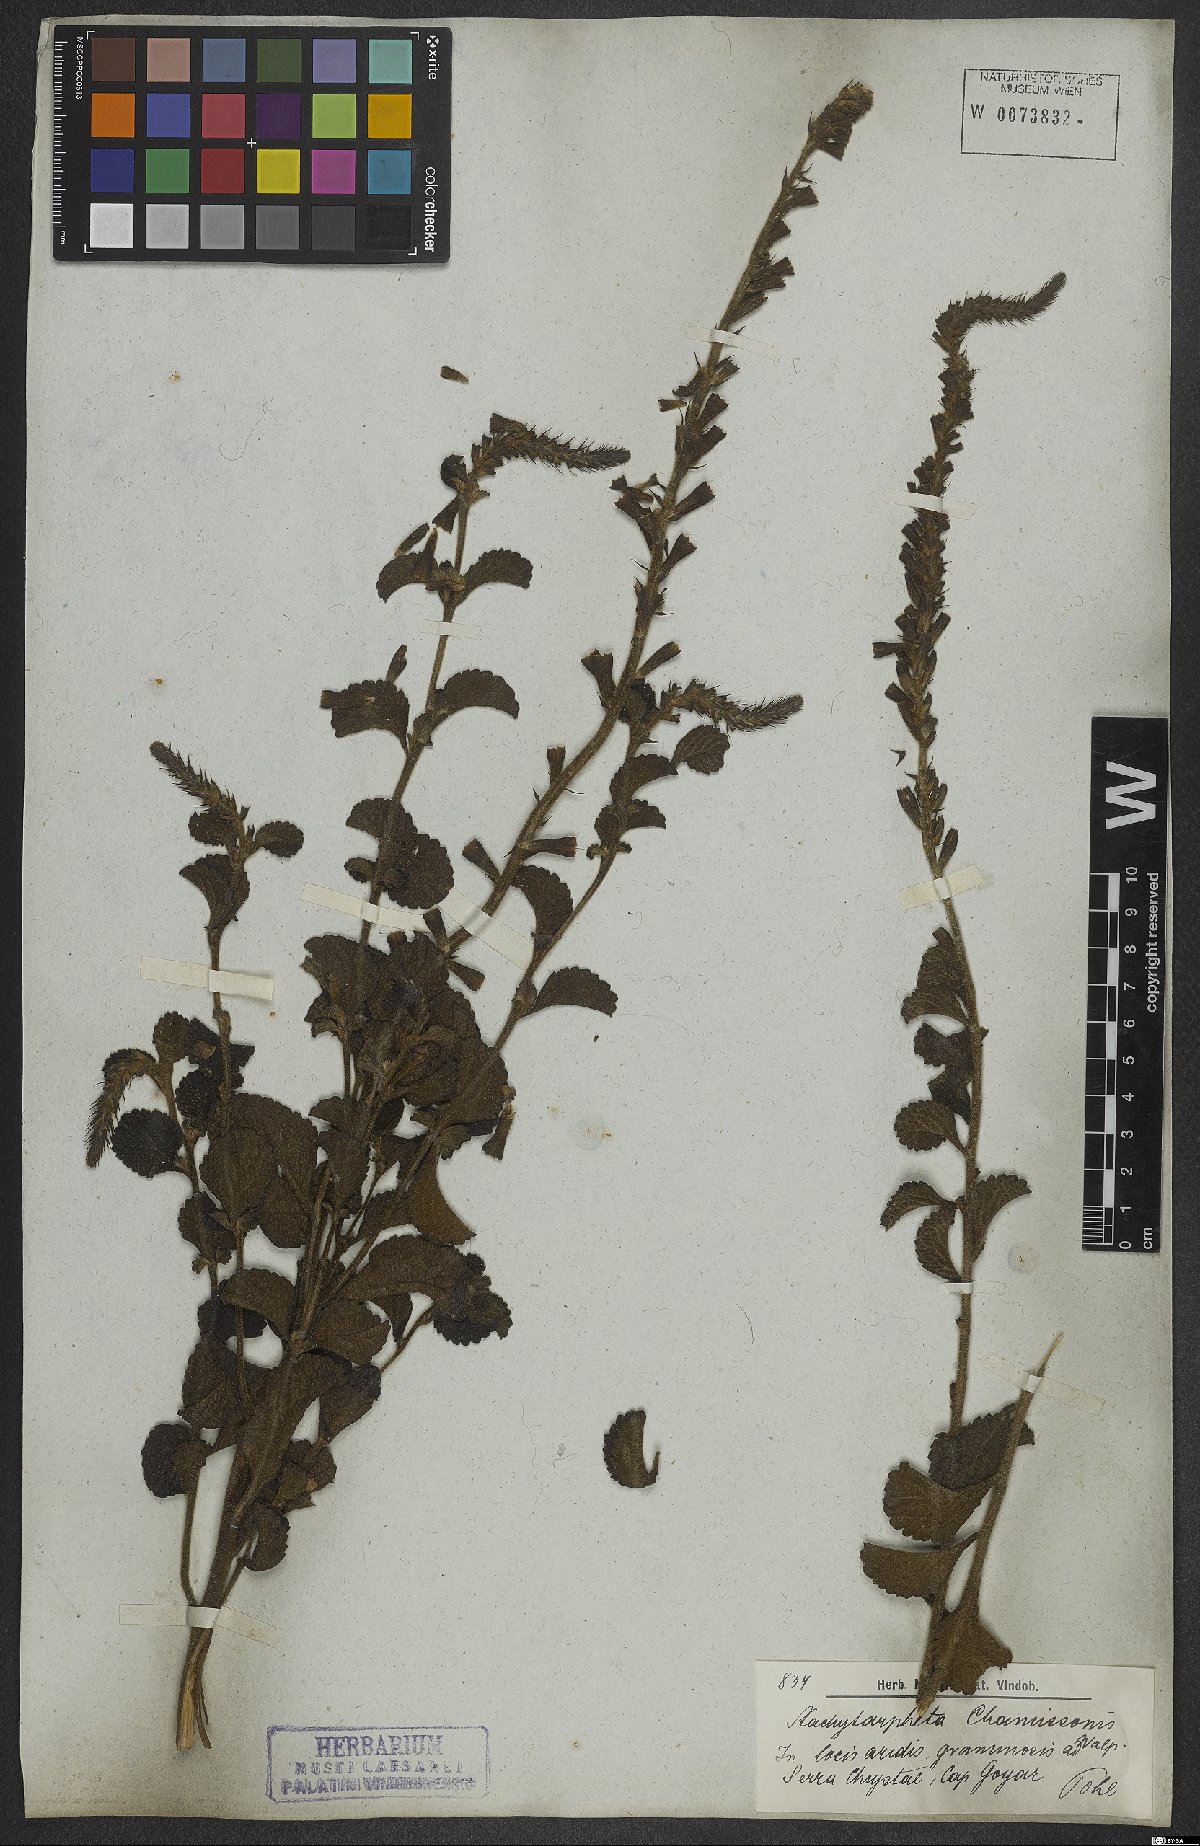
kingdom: Plantae
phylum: Tracheophyta
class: Magnoliopsida
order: Lamiales
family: Verbenaceae
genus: Stachytarpheta
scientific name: Stachytarpheta longispicata
